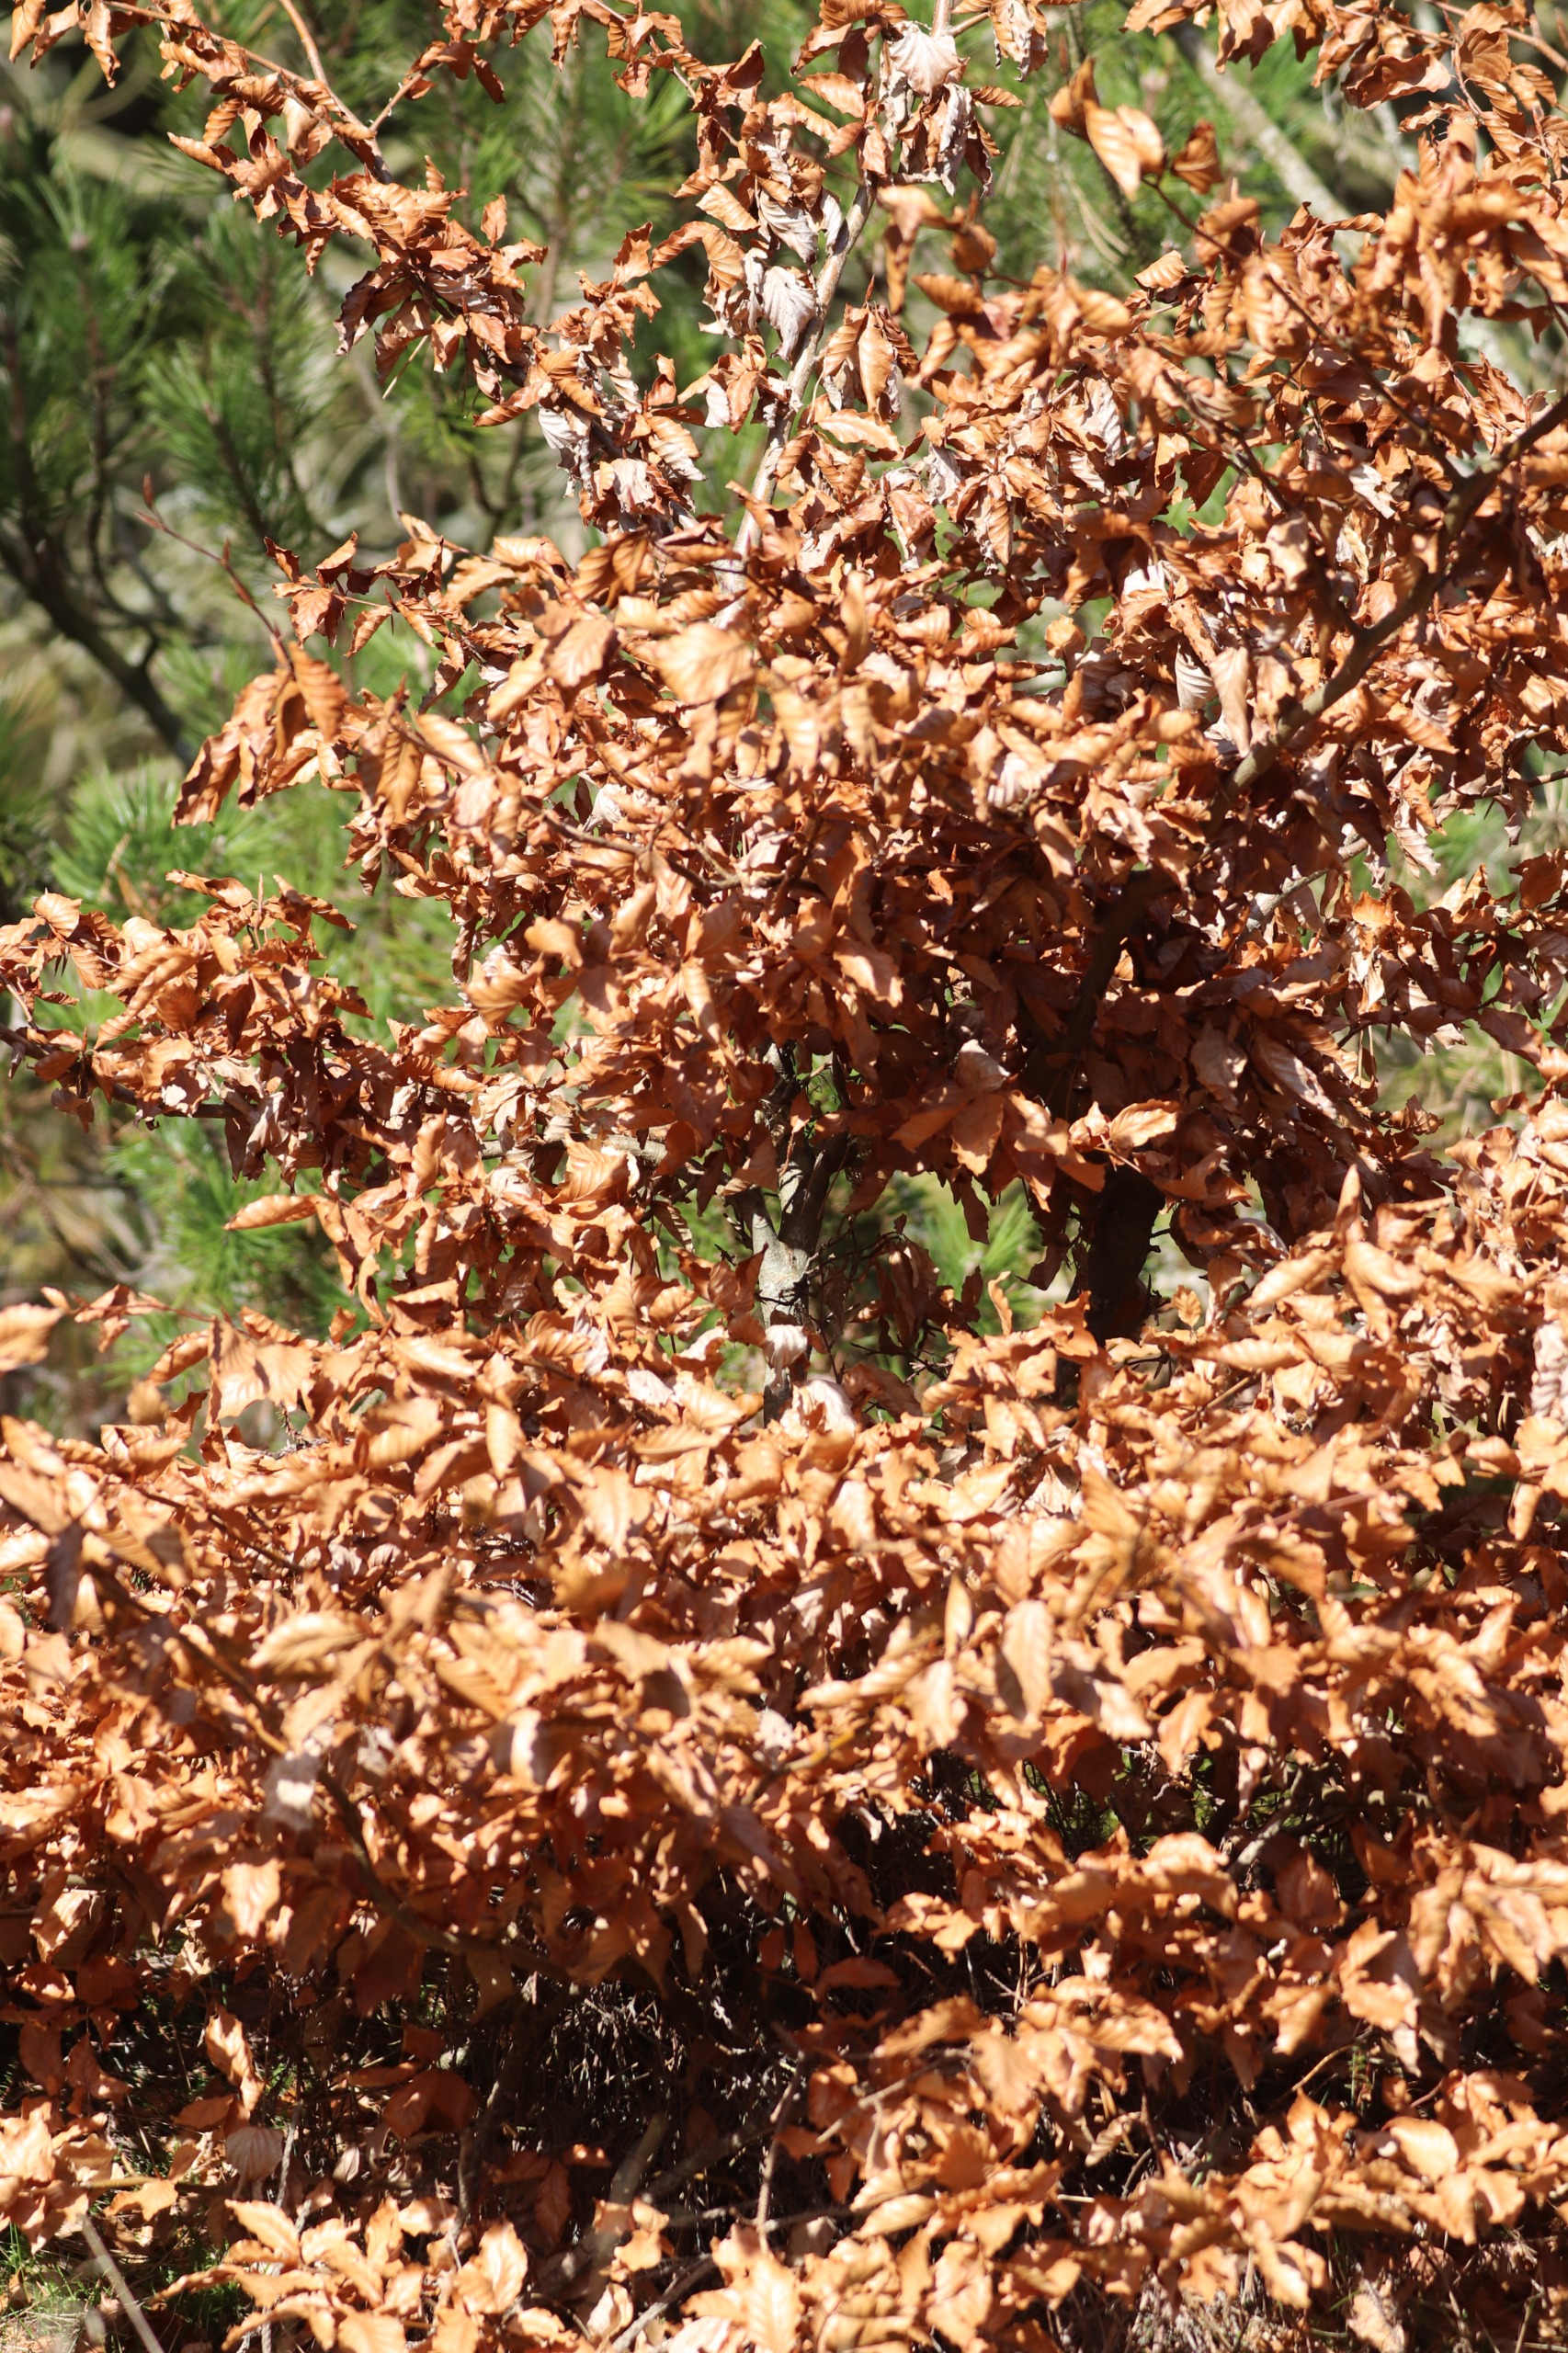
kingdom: Plantae
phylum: Tracheophyta
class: Magnoliopsida
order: Fagales
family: Fagaceae
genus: Fagus
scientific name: Fagus sylvatica
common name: Bøg
